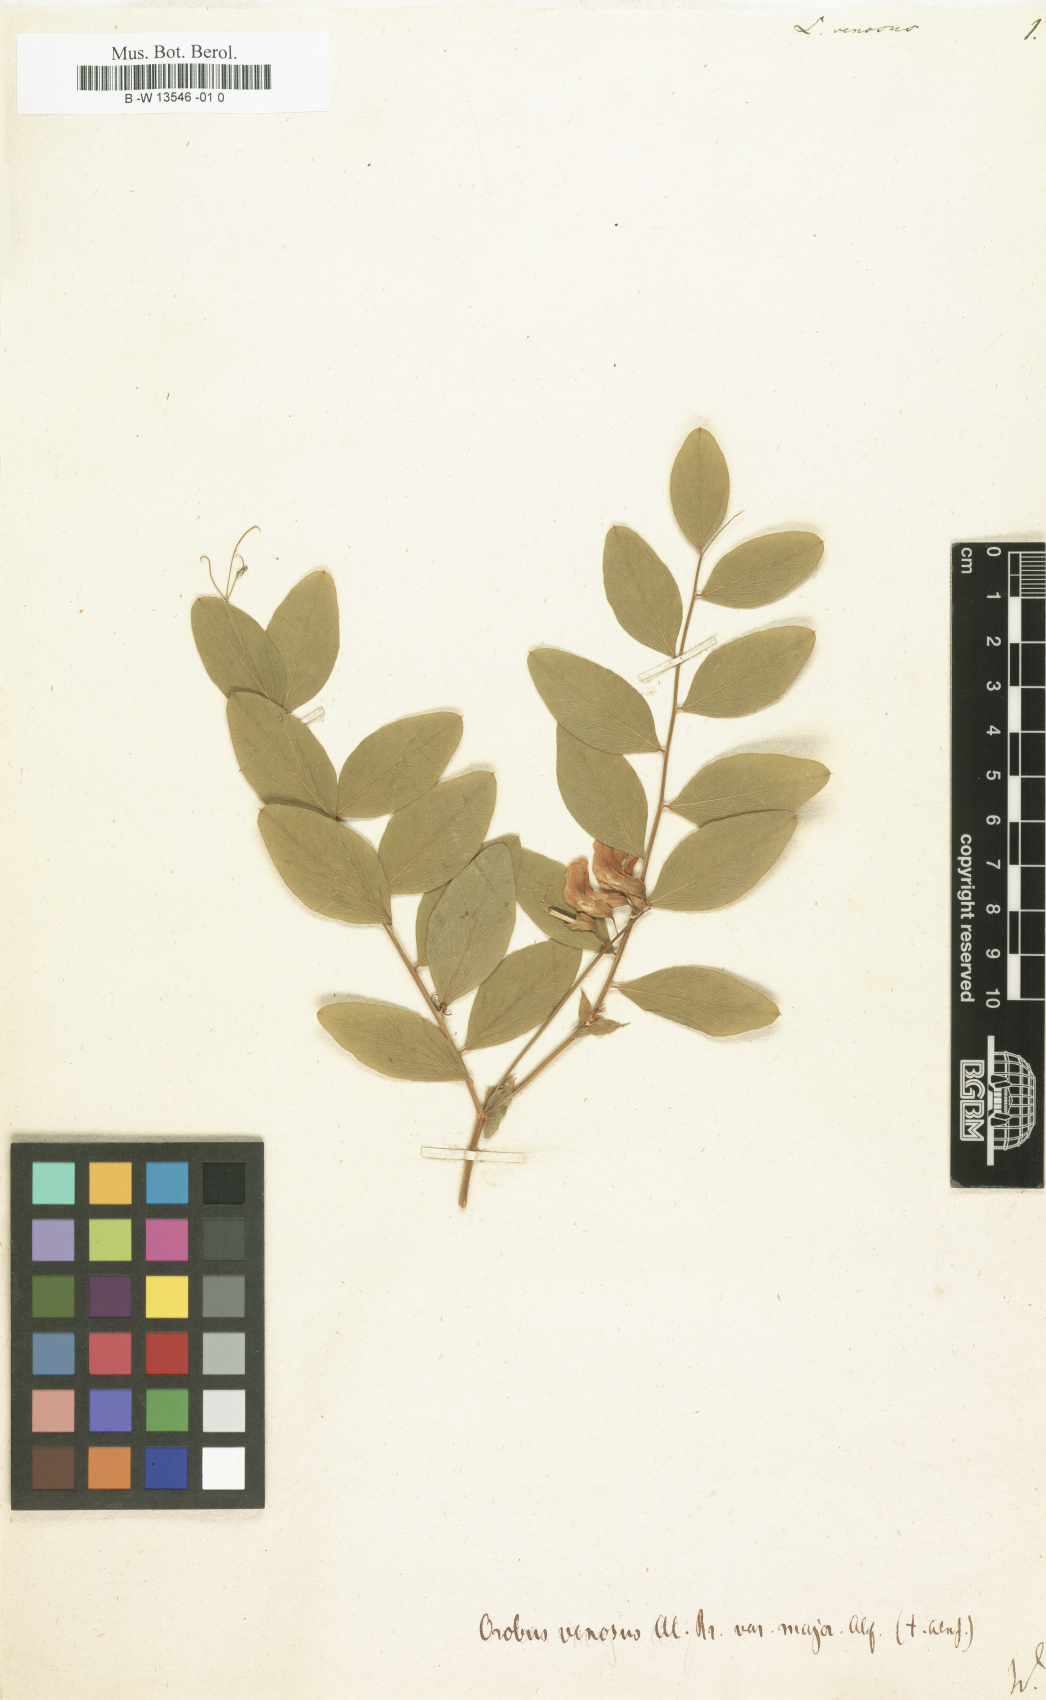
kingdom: Plantae
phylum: Tracheophyta
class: Magnoliopsida
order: Fabales
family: Fabaceae
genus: Lathyrus
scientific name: Lathyrus venosus
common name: Forest-pea
